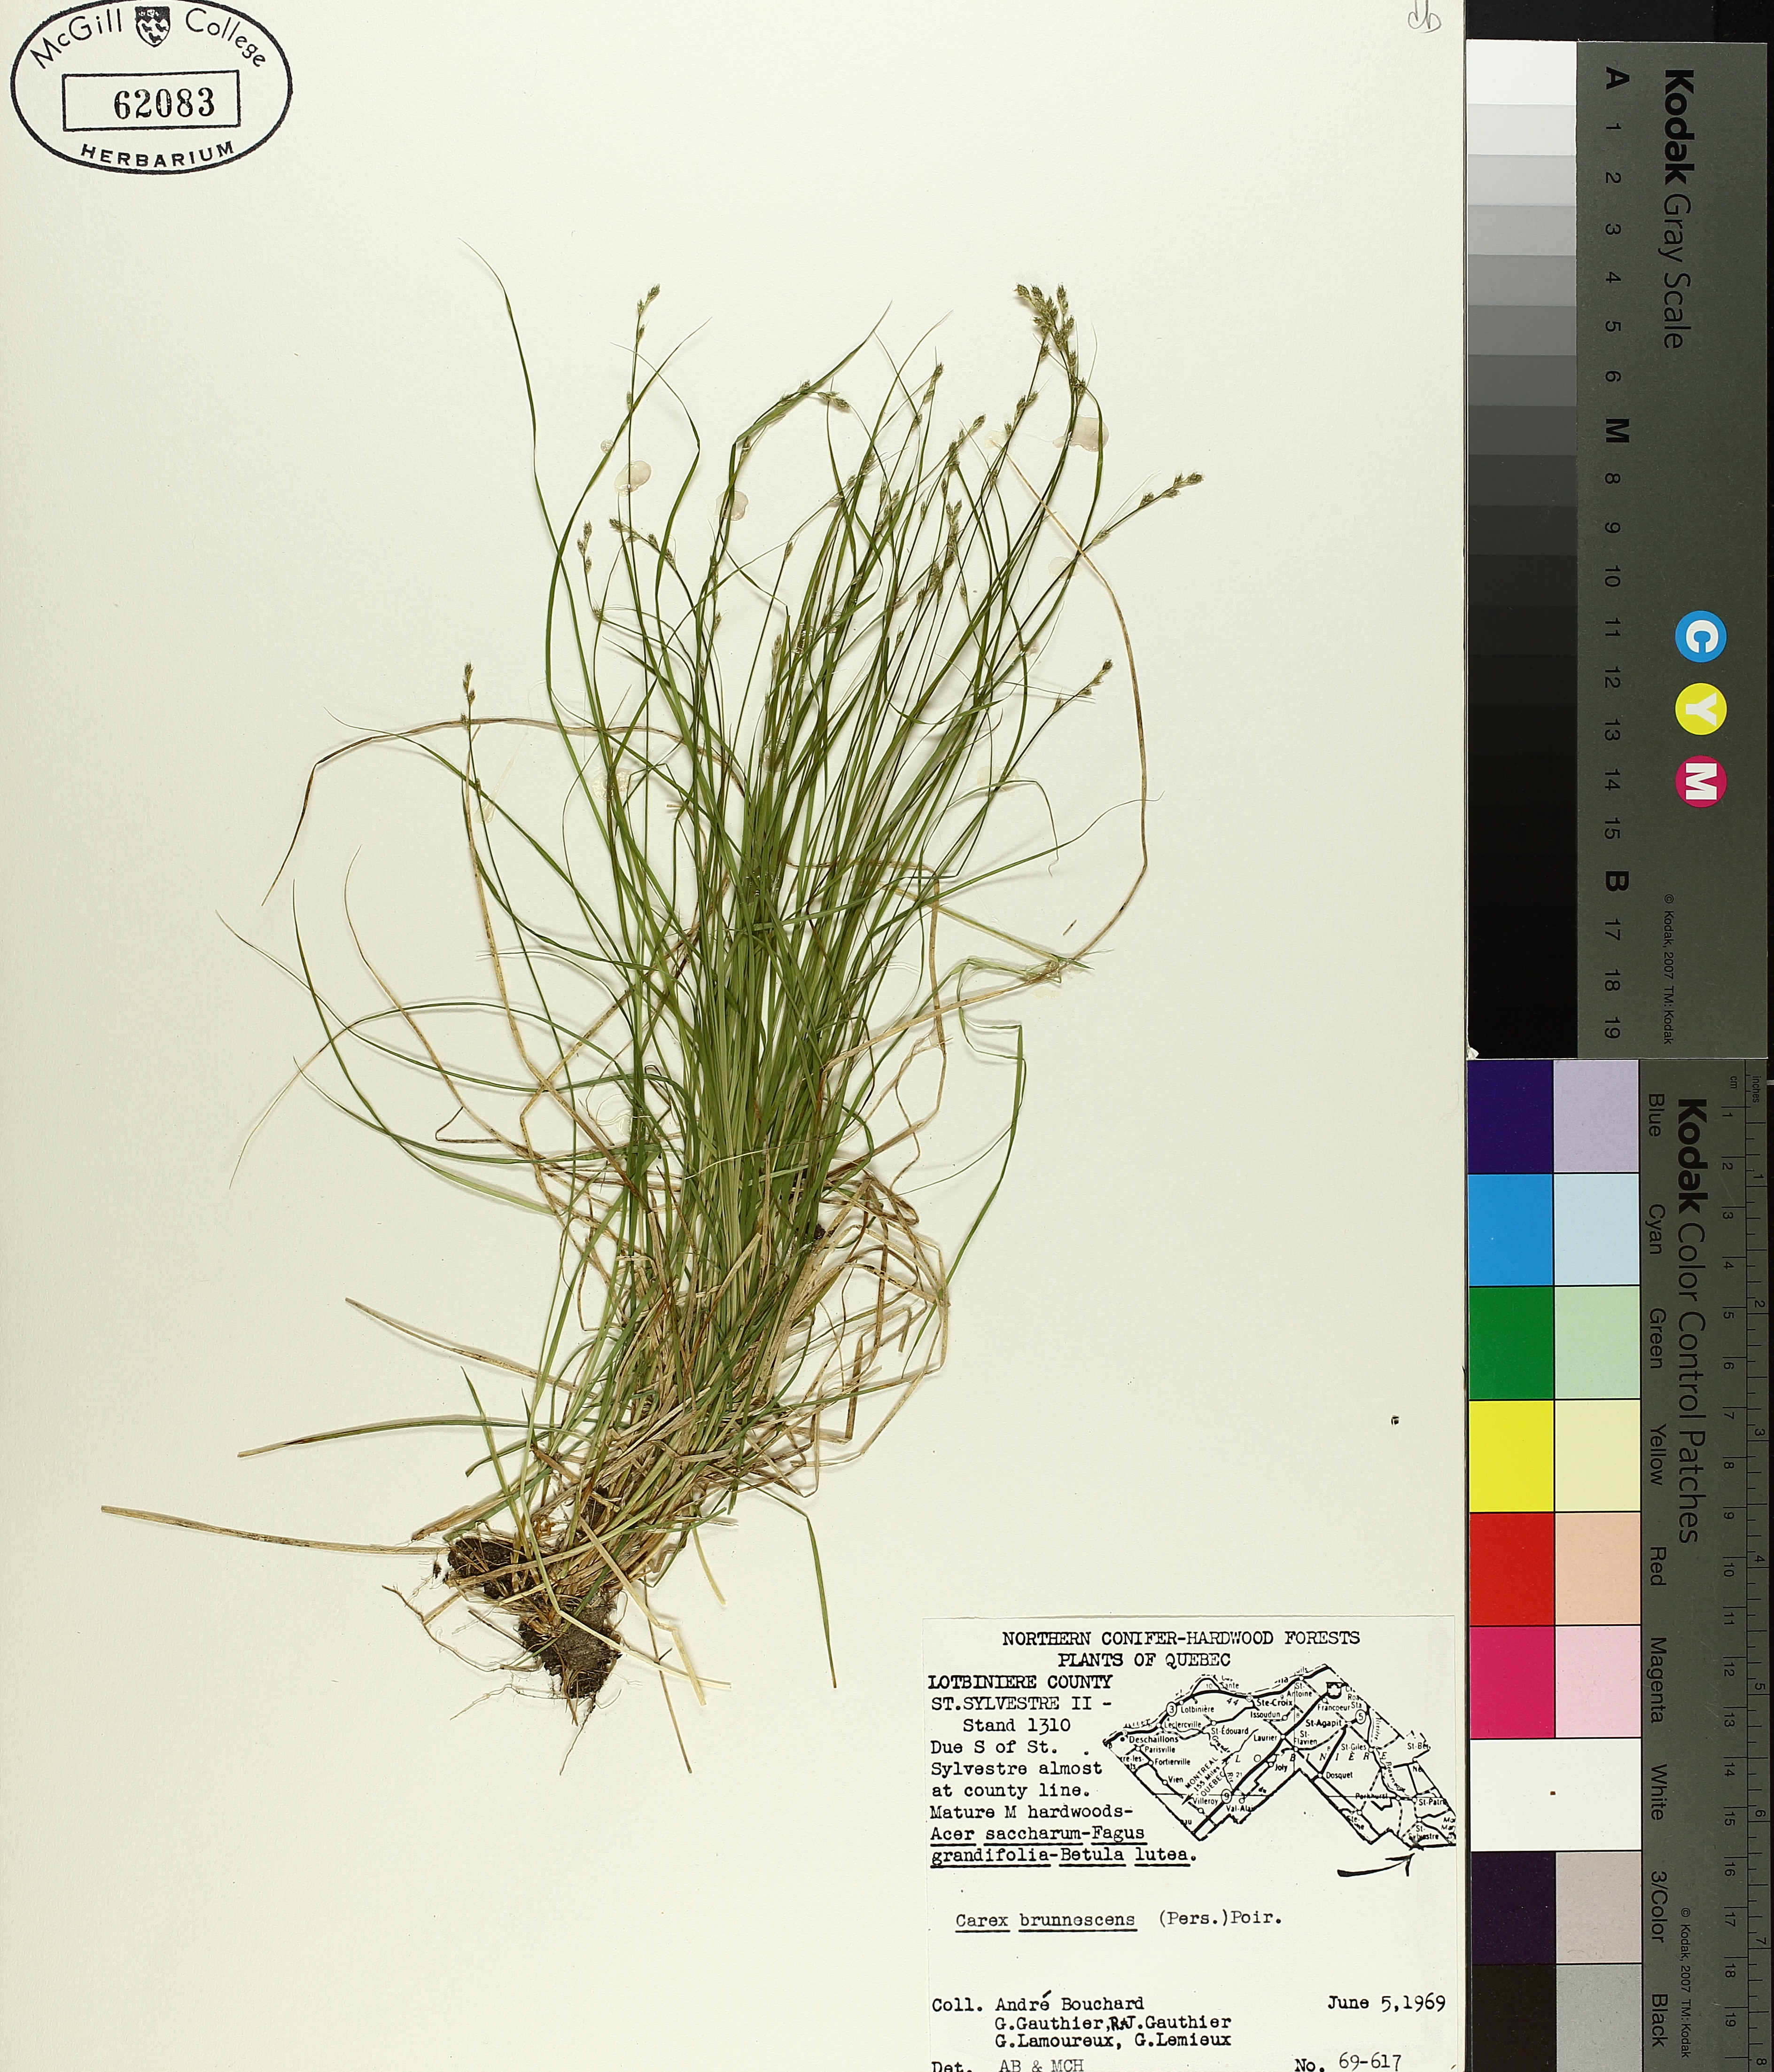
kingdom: Plantae
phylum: Tracheophyta
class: Liliopsida
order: Poales
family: Cyperaceae
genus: Carex
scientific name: Carex brunnescens
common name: Brown sedge
